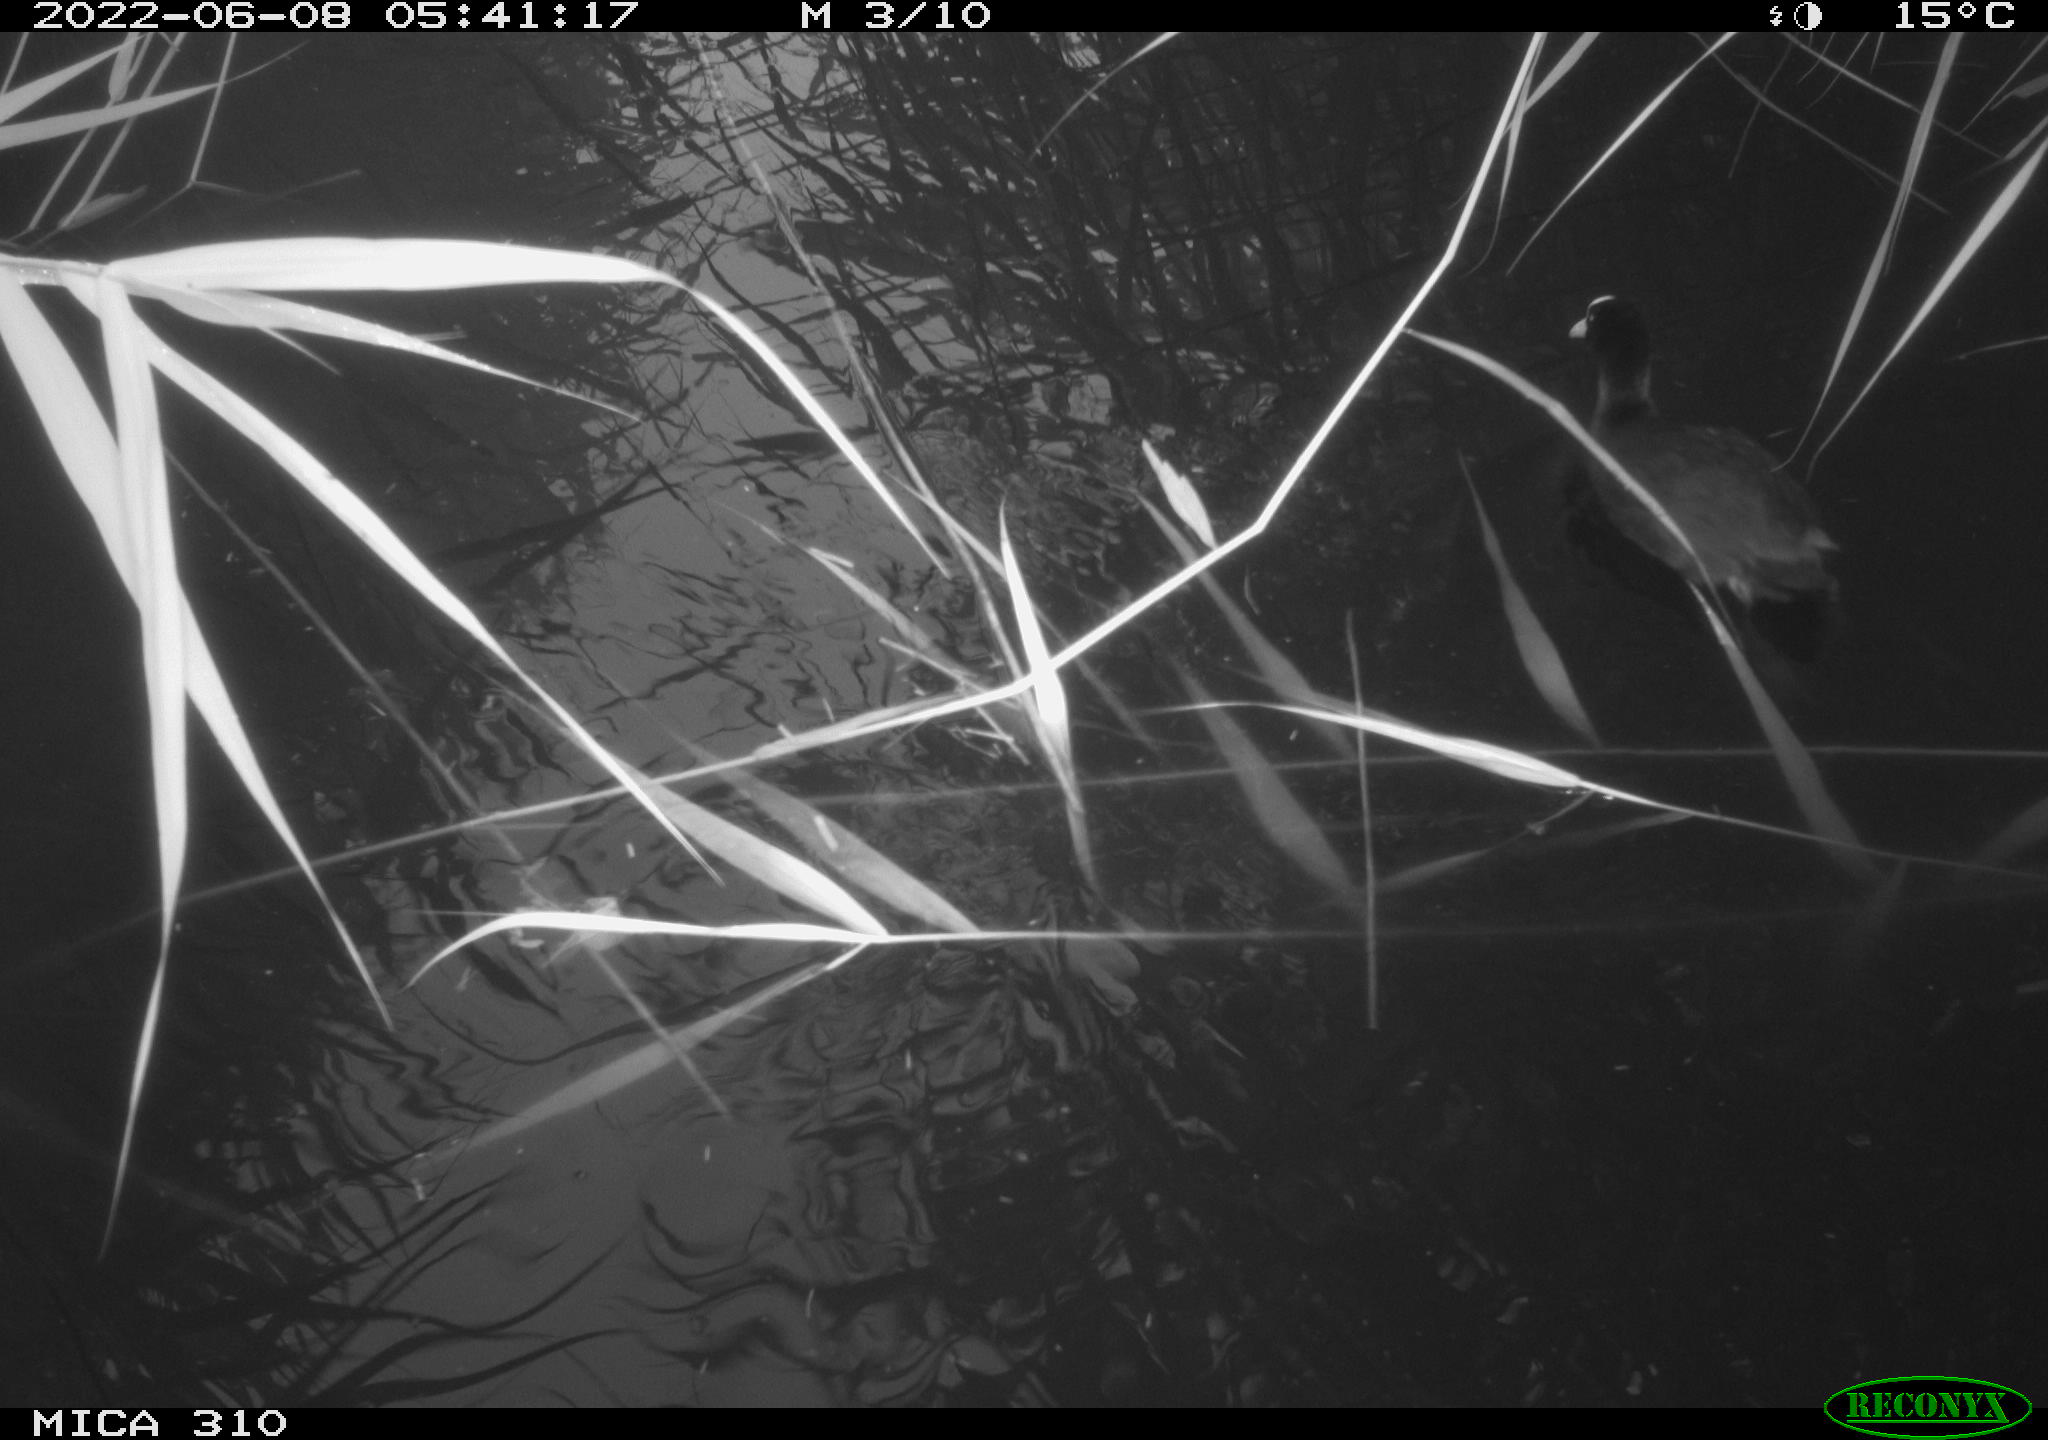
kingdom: Animalia
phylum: Chordata
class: Aves
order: Gruiformes
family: Rallidae
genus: Fulica
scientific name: Fulica atra
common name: Eurasian coot
